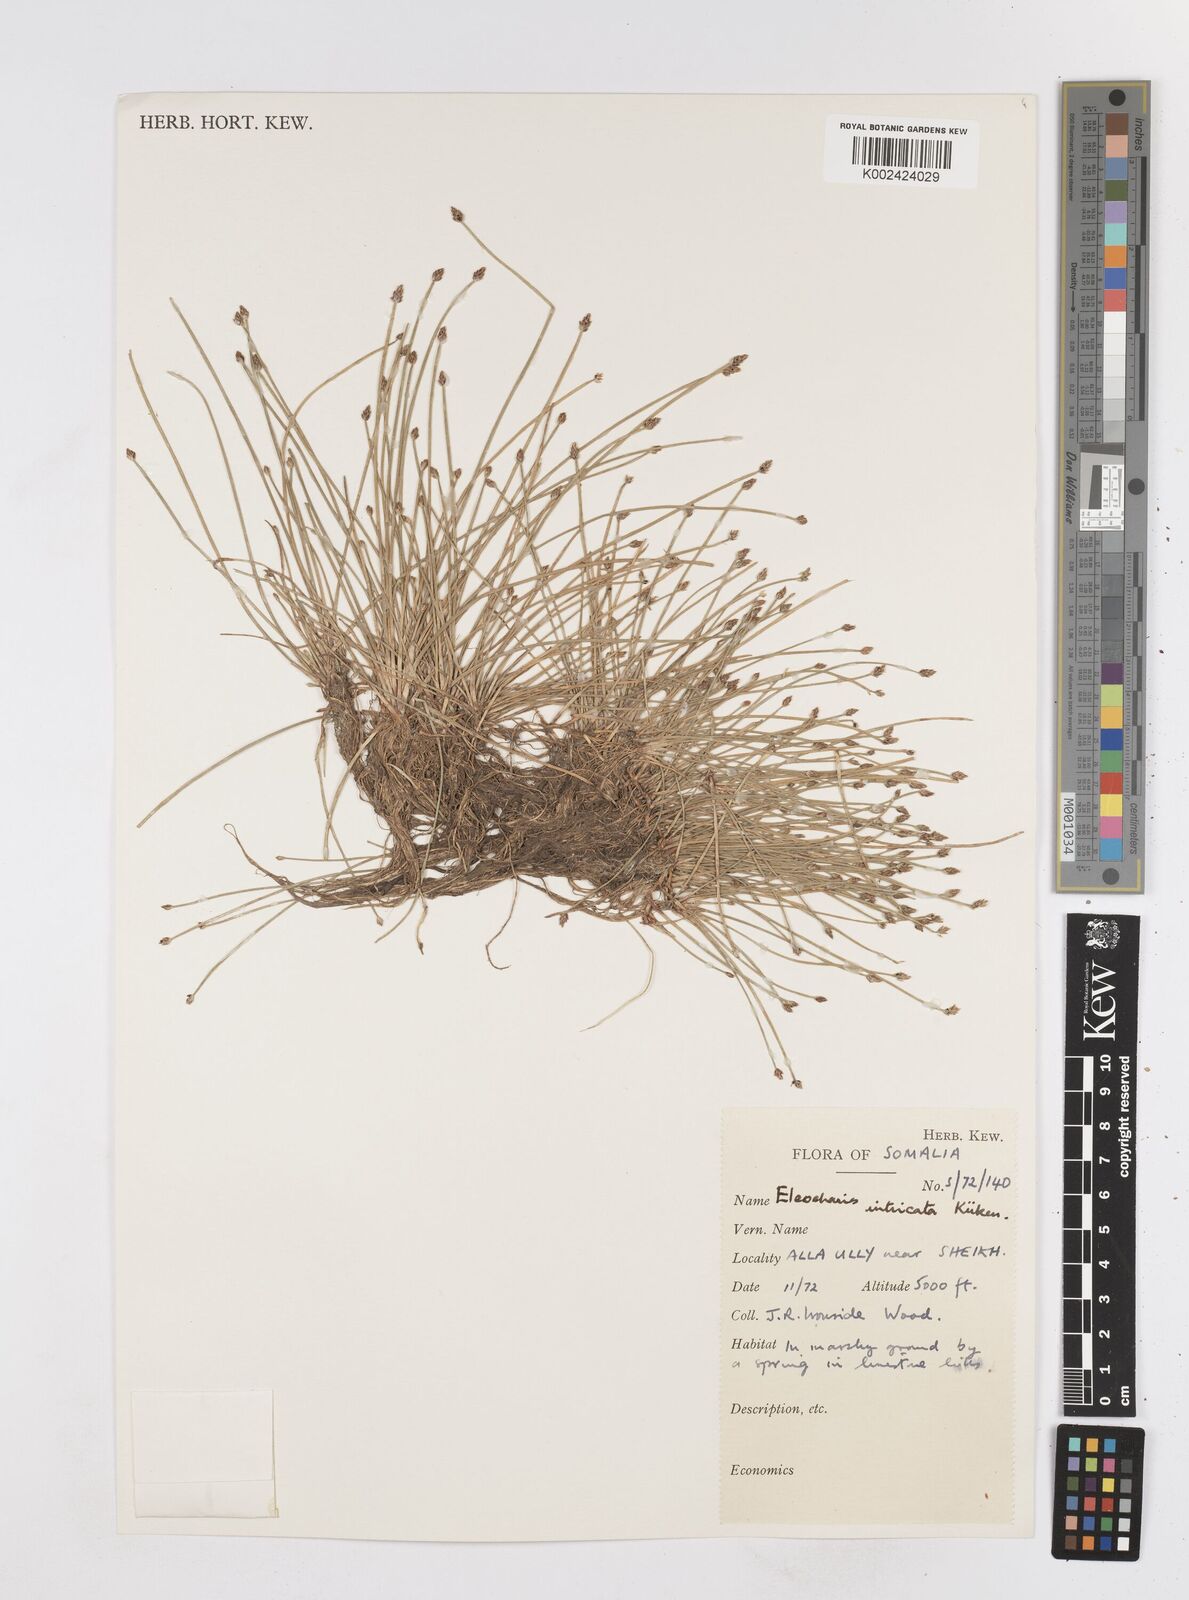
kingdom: Plantae
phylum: Tracheophyta
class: Liliopsida
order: Poales
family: Cyperaceae
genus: Eleocharis
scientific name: Eleocharis caduca
